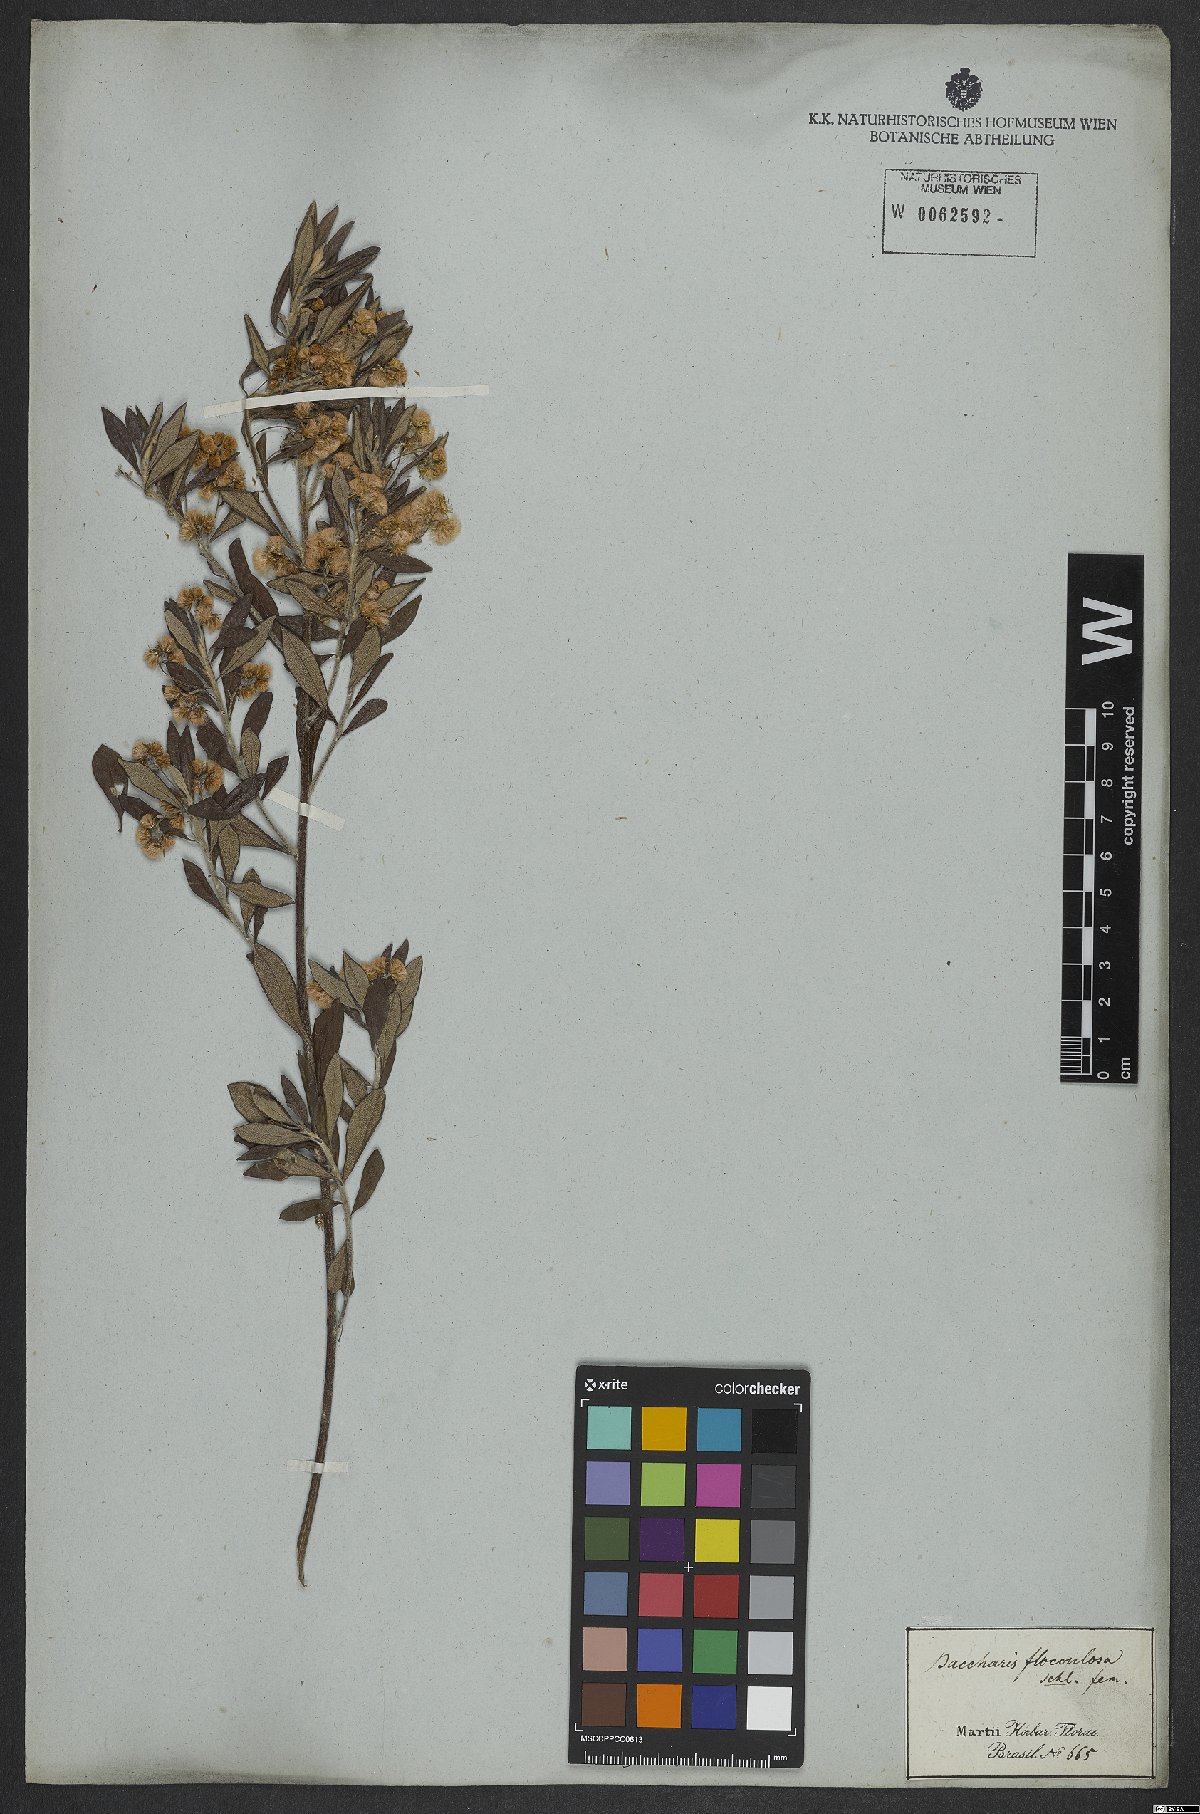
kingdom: Plantae
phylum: Tracheophyta
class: Magnoliopsida
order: Asterales
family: Asteraceae
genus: Baccharis
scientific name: Baccharis calvescens
